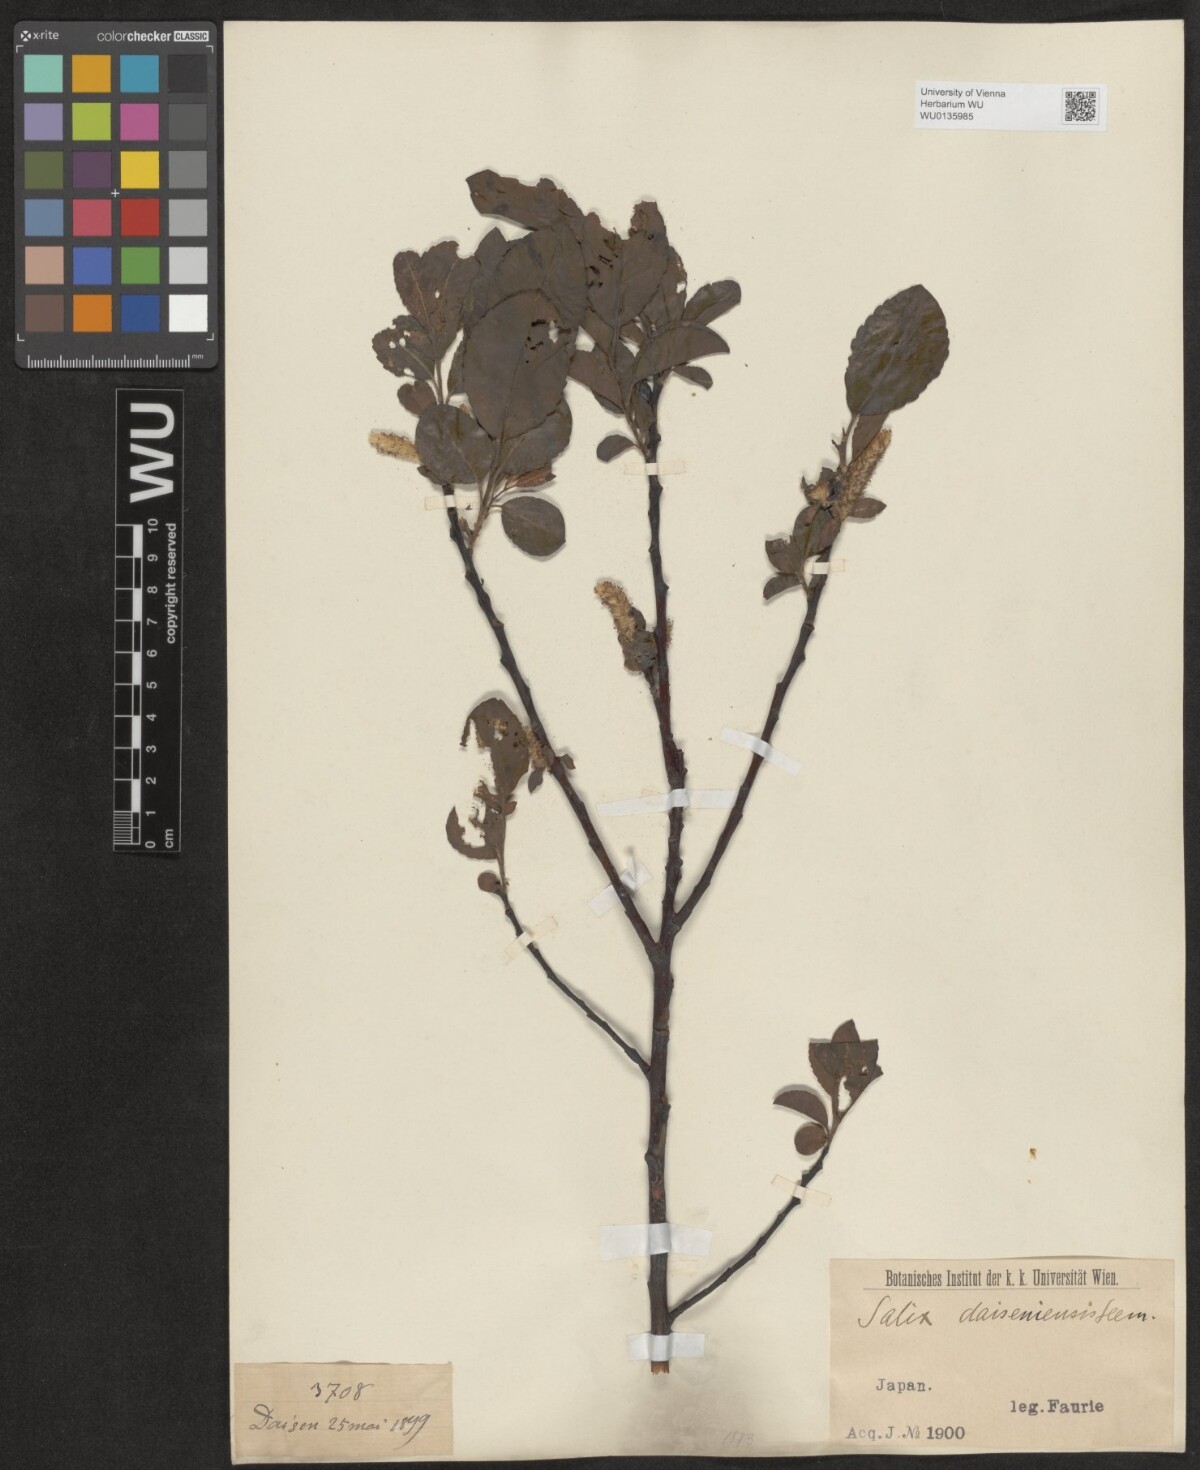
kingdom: Plantae
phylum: Tracheophyta
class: Magnoliopsida
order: Malpighiales
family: Salicaceae
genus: Salix
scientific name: Salix sieboldiana
